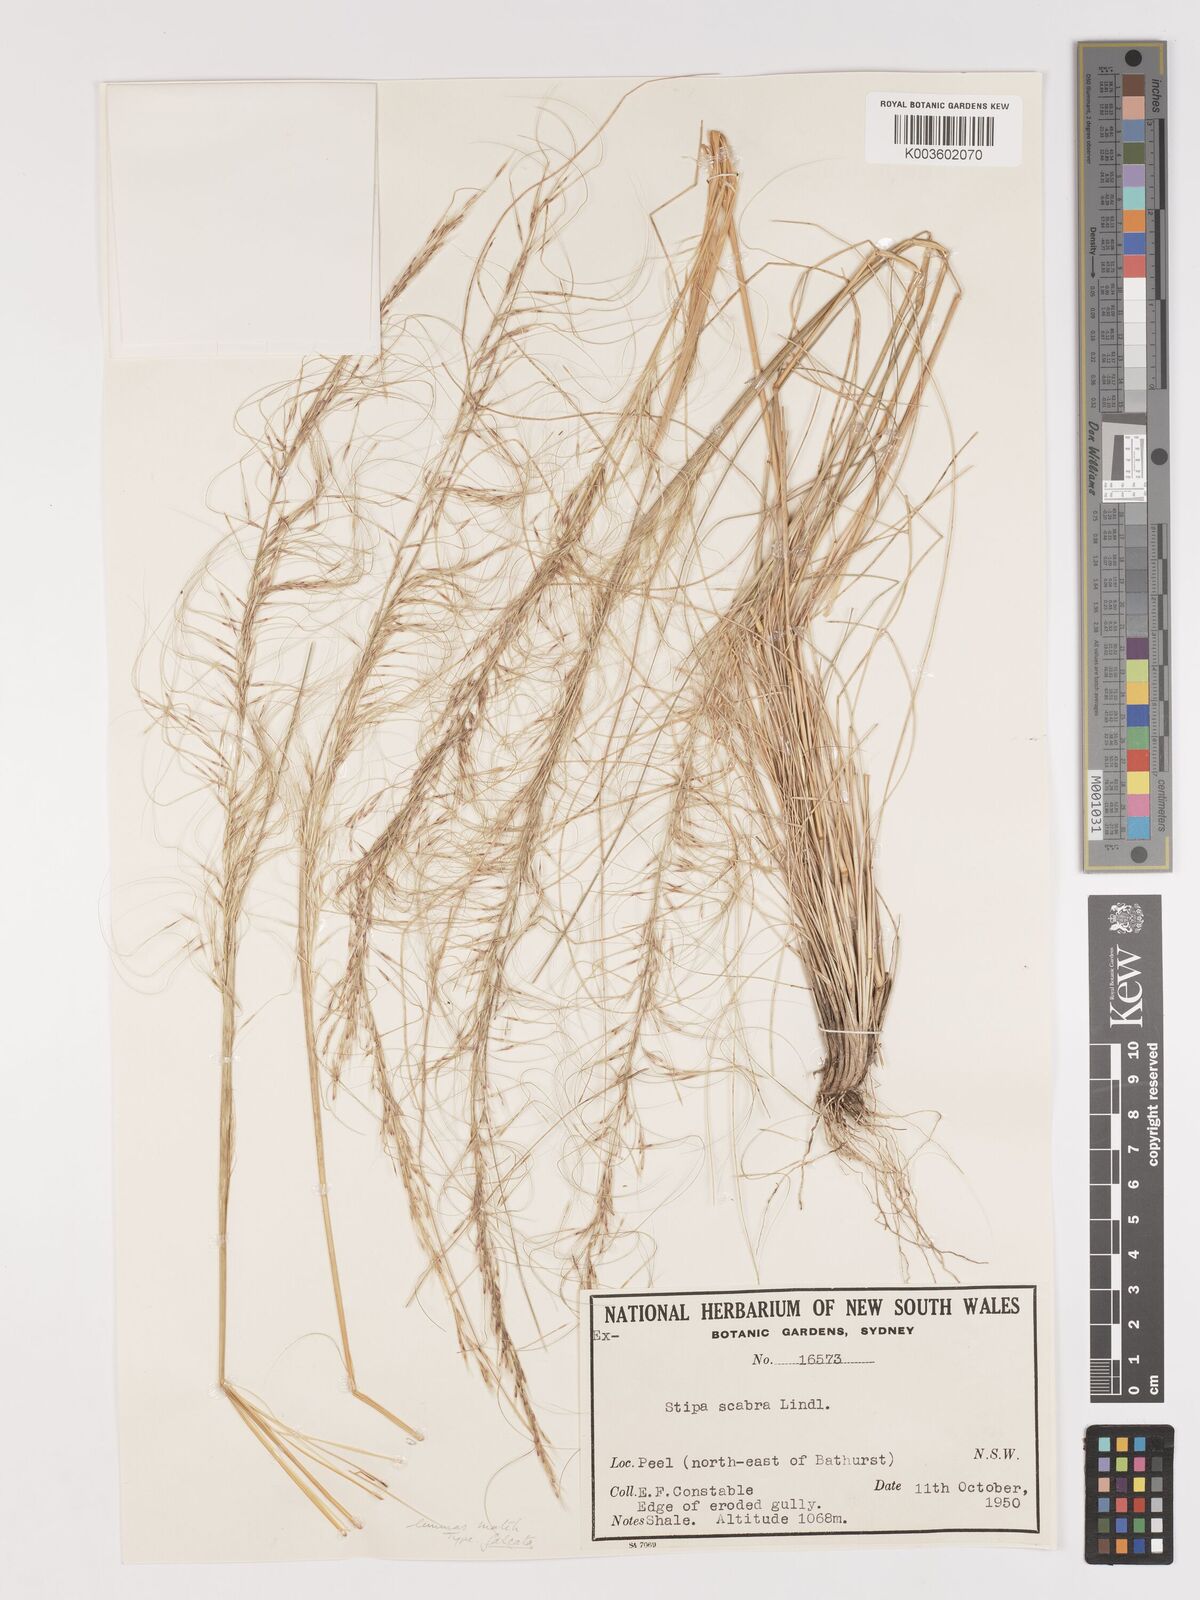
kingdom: Plantae
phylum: Tracheophyta
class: Liliopsida
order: Poales
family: Poaceae
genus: Austrostipa
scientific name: Austrostipa scabra
